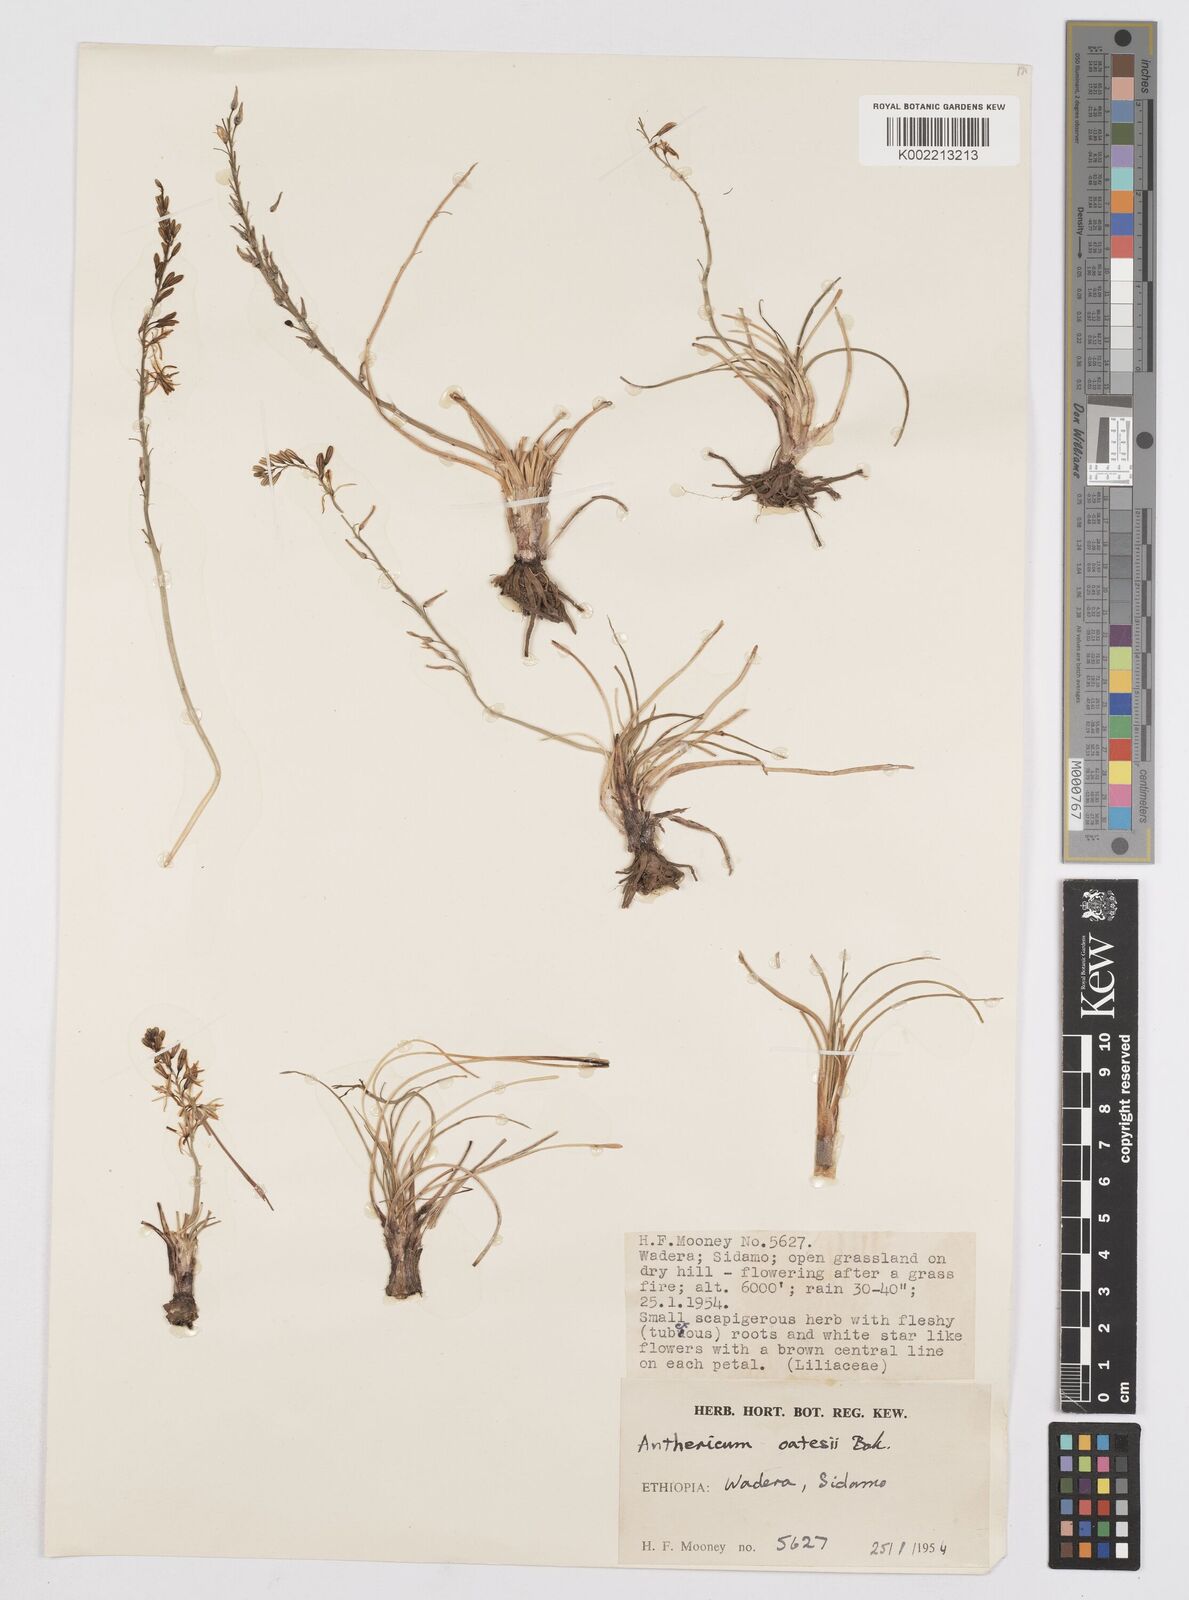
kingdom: Plantae
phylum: Tracheophyta
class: Liliopsida
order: Asparagales
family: Asphodelaceae
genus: Trachyandra
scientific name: Trachyandra saltii
